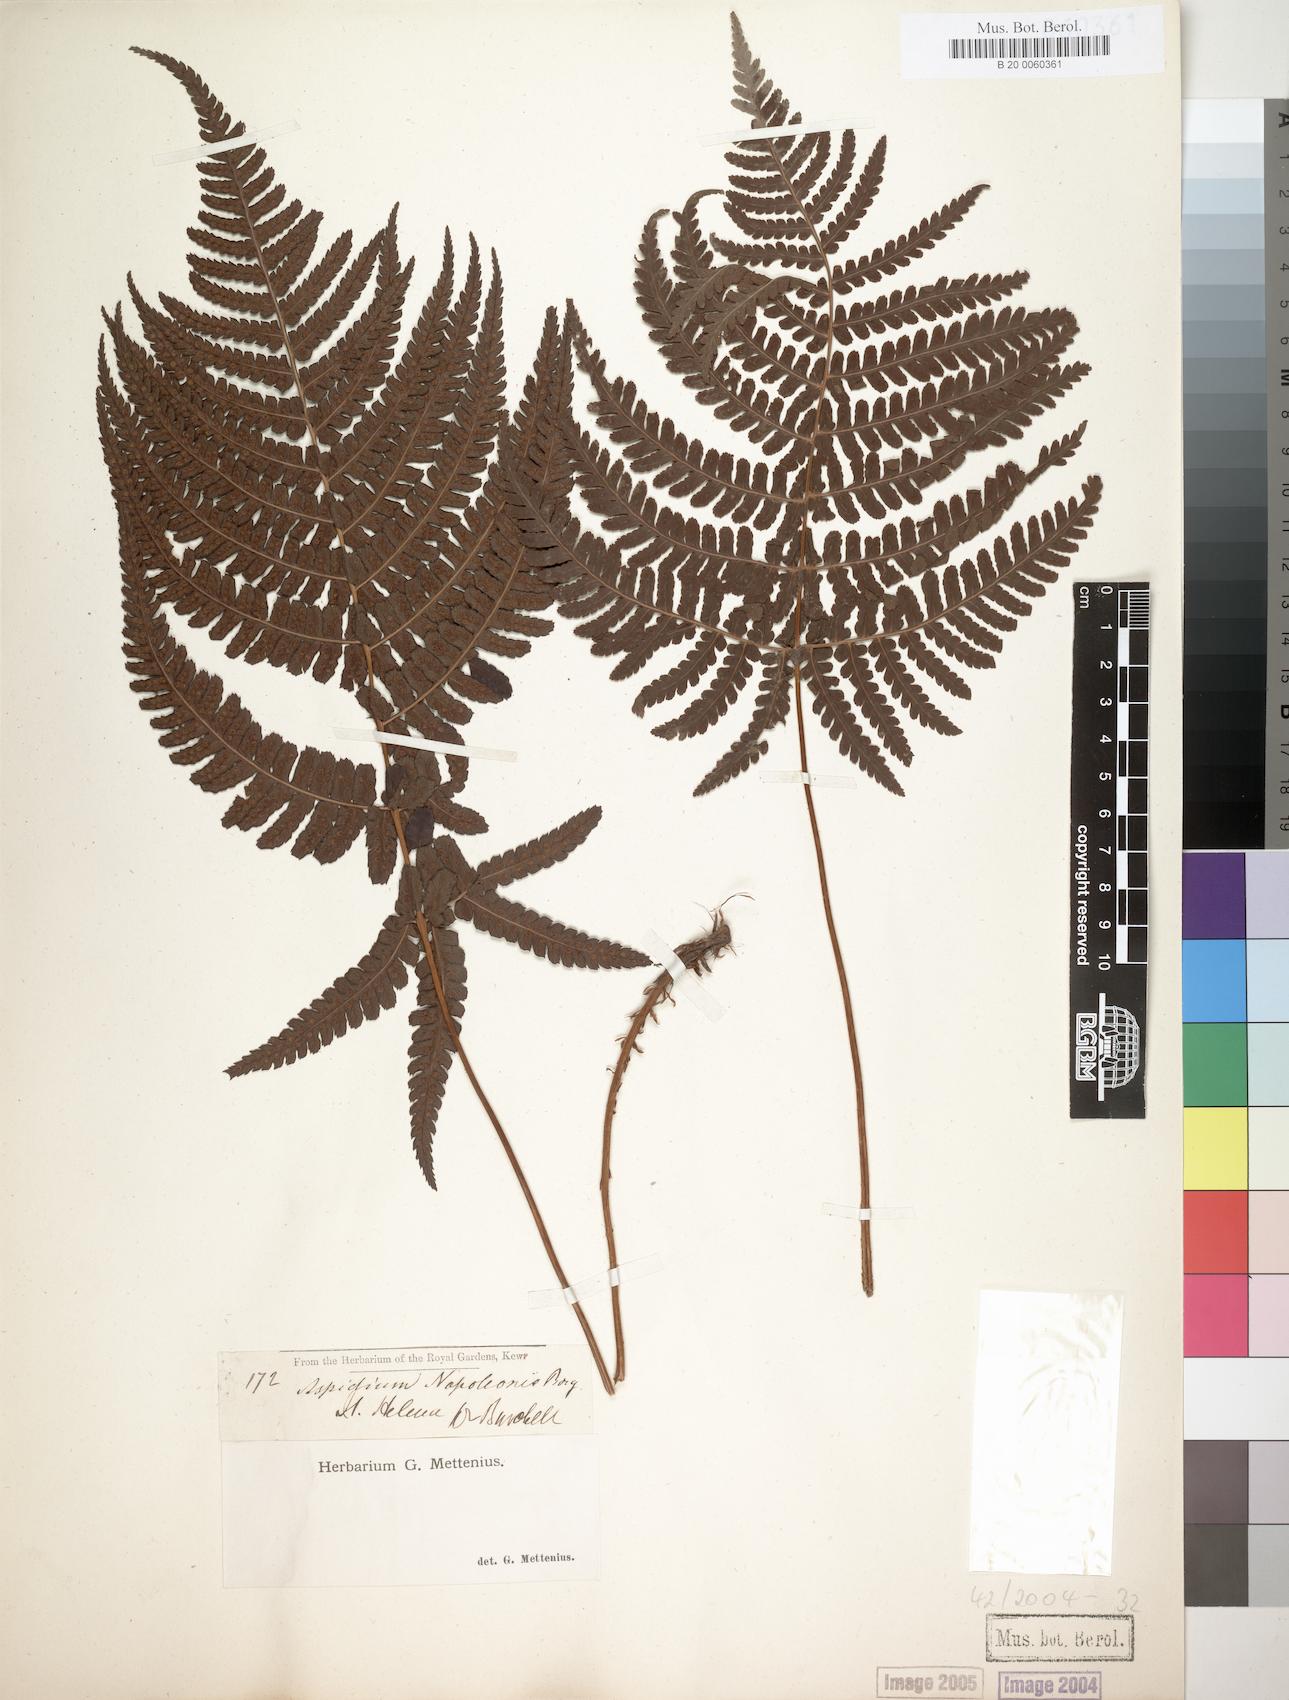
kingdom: Plantae
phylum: Tracheophyta
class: Polypodiopsida
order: Polypodiales
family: Dryopteridaceae
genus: Dryopteris
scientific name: Dryopteris napoleonis
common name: Small kidney fern
